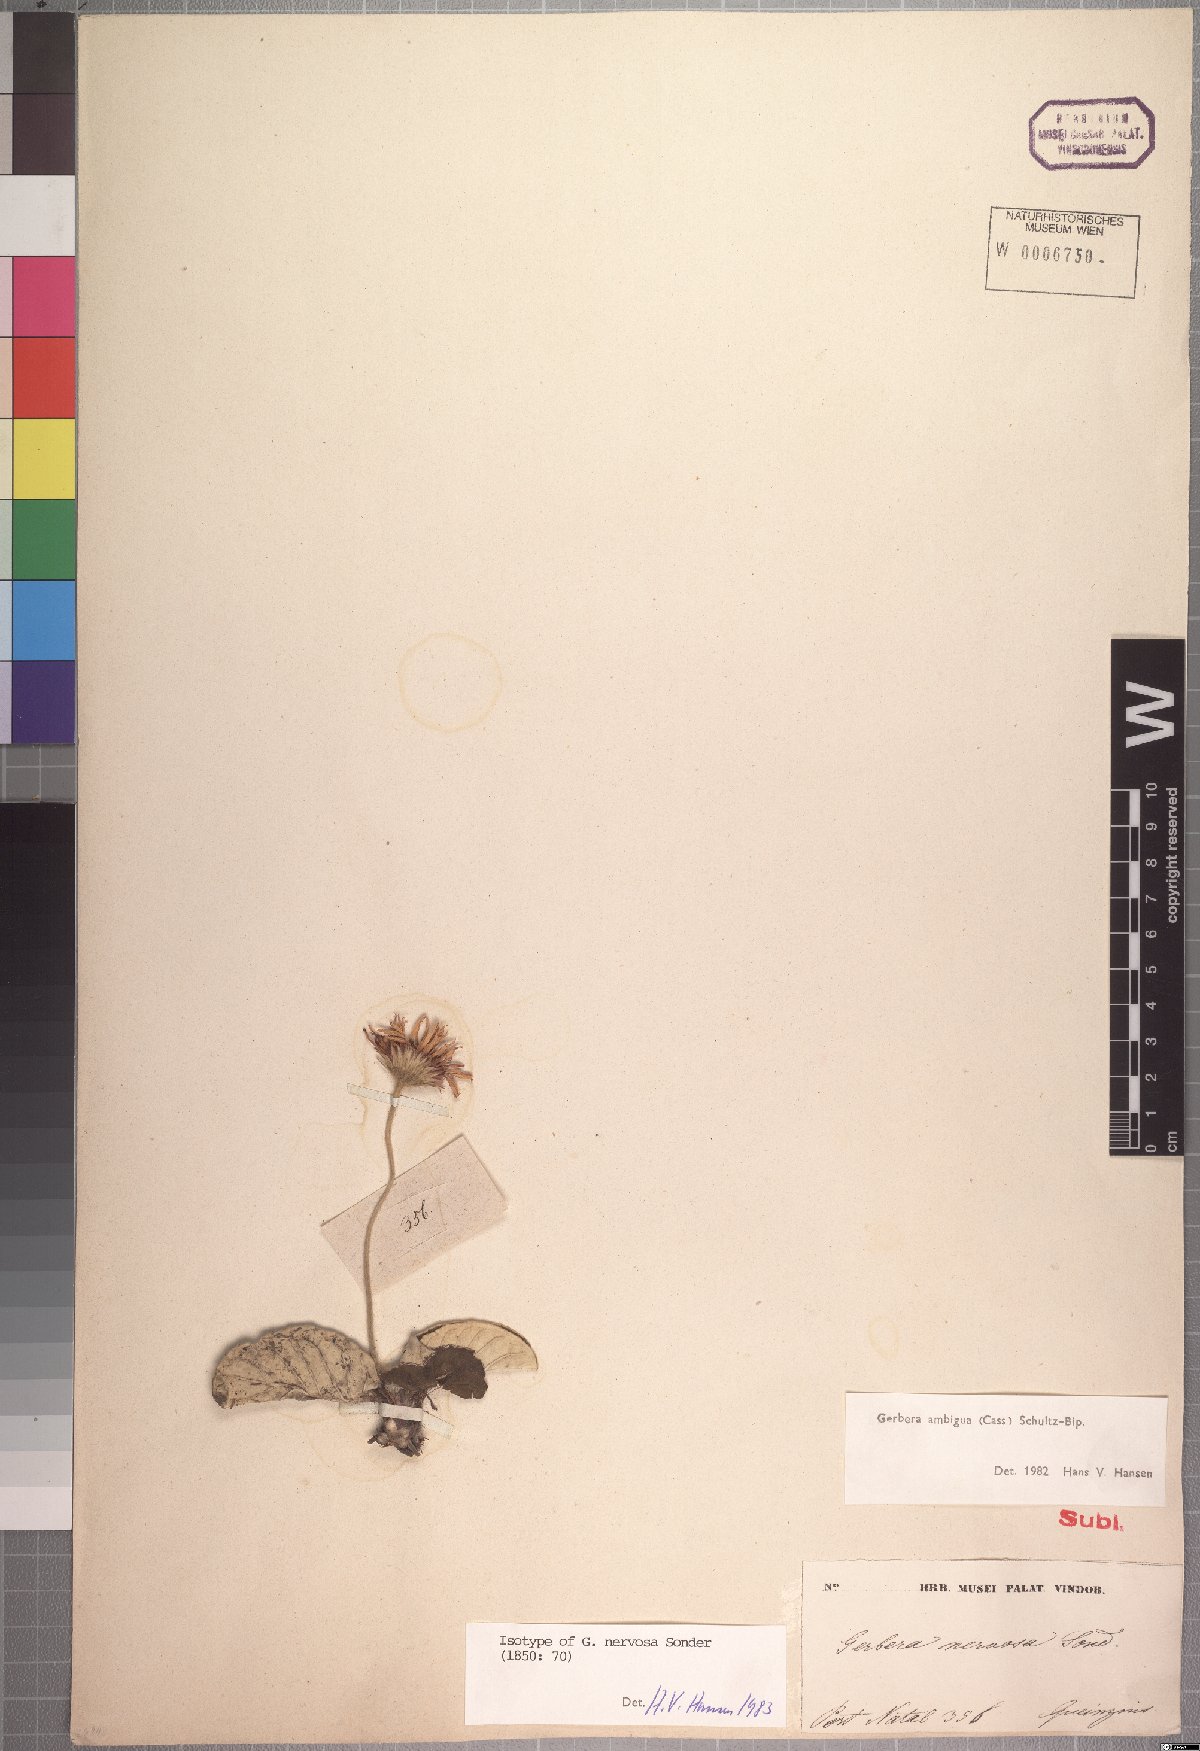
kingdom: Plantae
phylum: Tracheophyta
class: Magnoliopsida
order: Asterales
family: Asteraceae
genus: Gerbera
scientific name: Gerbera ambigua
